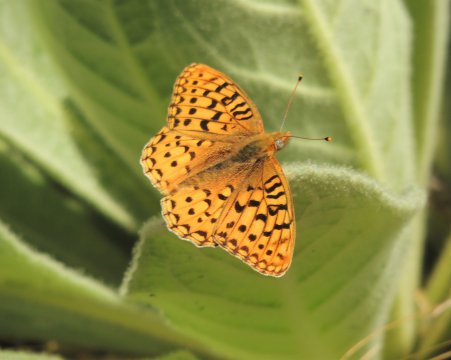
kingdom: Animalia
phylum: Arthropoda
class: Insecta
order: Lepidoptera
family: Nymphalidae
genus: Speyeria
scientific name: Speyeria coronis
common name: Coronis Fritillary
